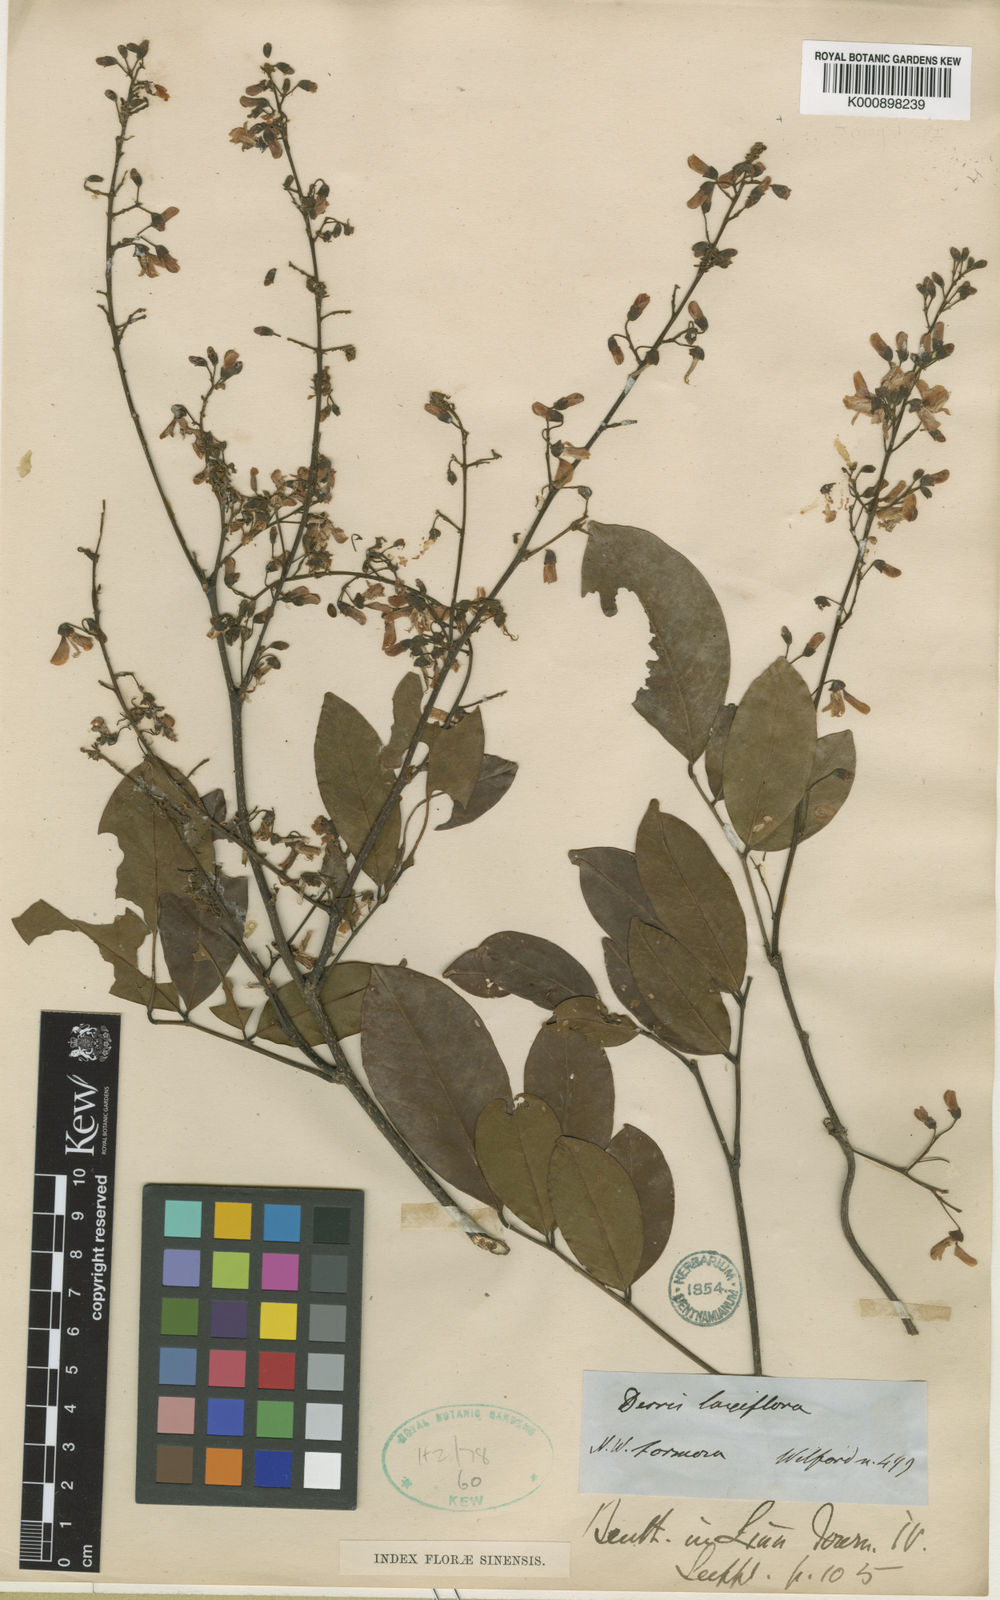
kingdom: Plantae
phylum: Tracheophyta
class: Magnoliopsida
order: Fabales
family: Fabaceae
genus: Derris
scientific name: Derris laxiflora
